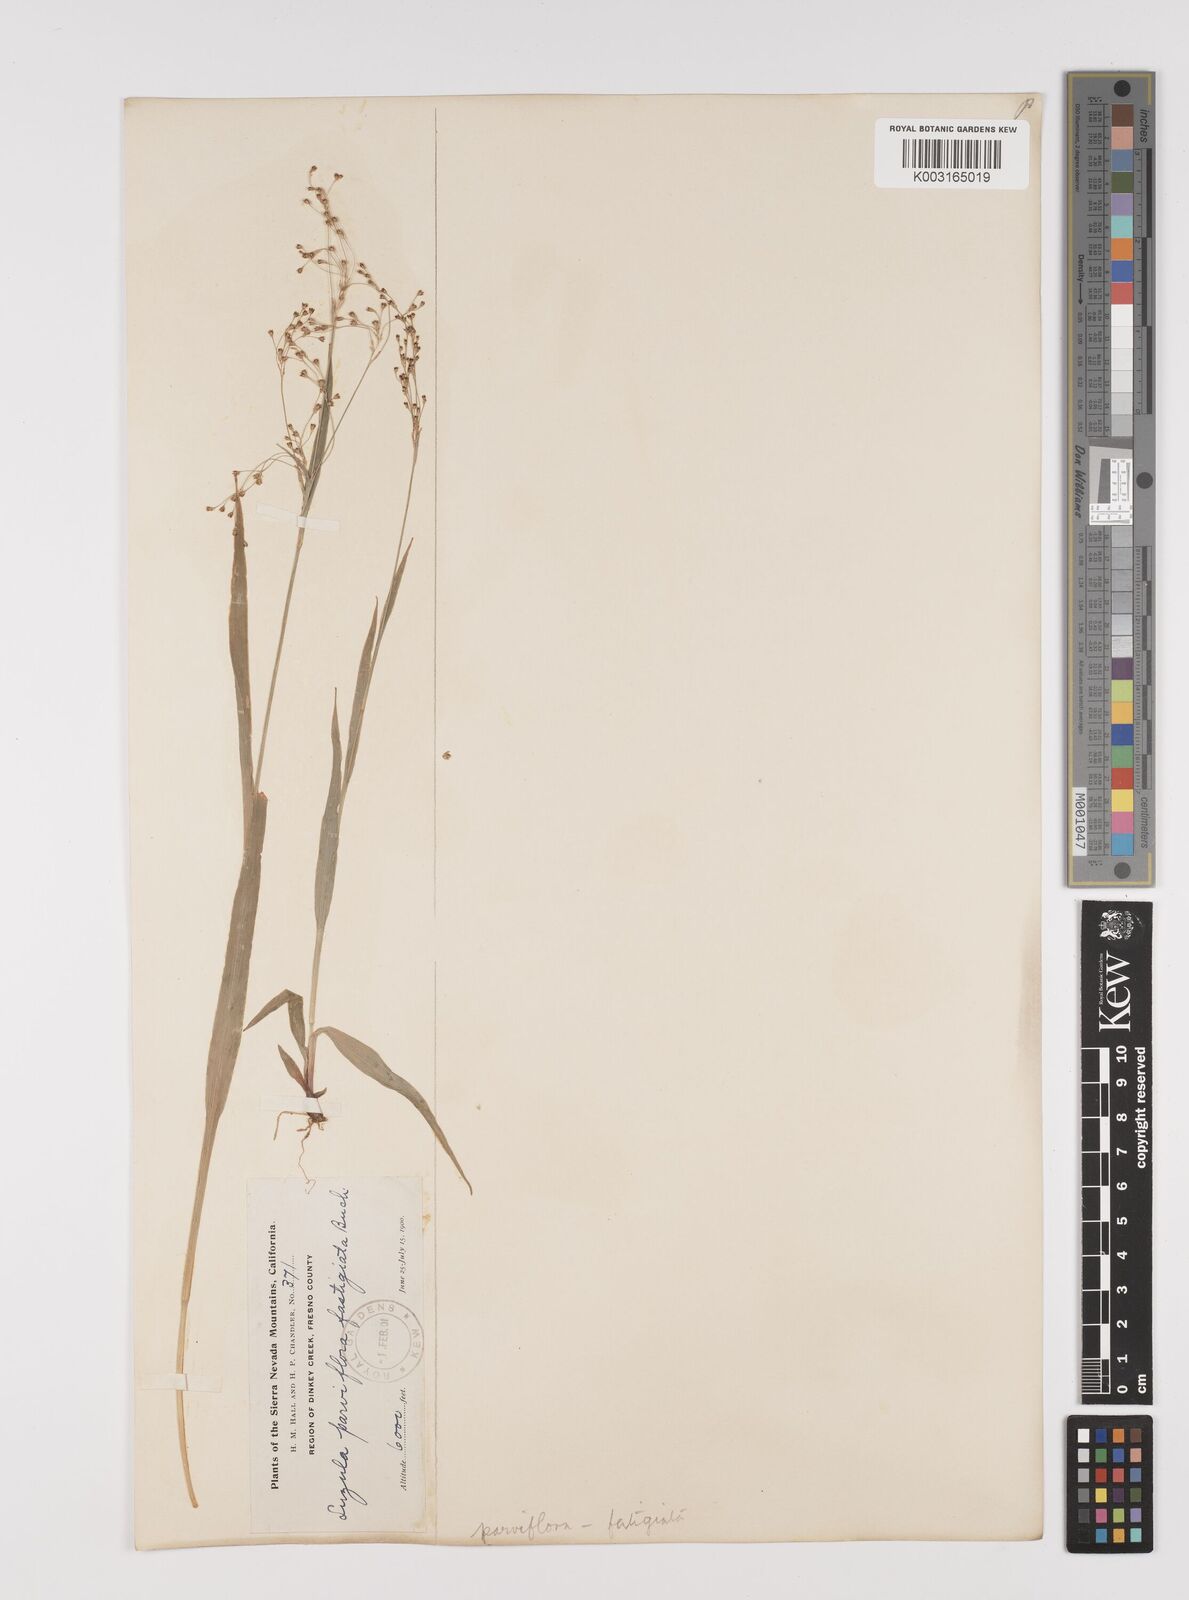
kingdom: Plantae
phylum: Tracheophyta
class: Liliopsida
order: Poales
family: Juncaceae
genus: Luzula
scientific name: Luzula parviflora
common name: Millet woodrush
